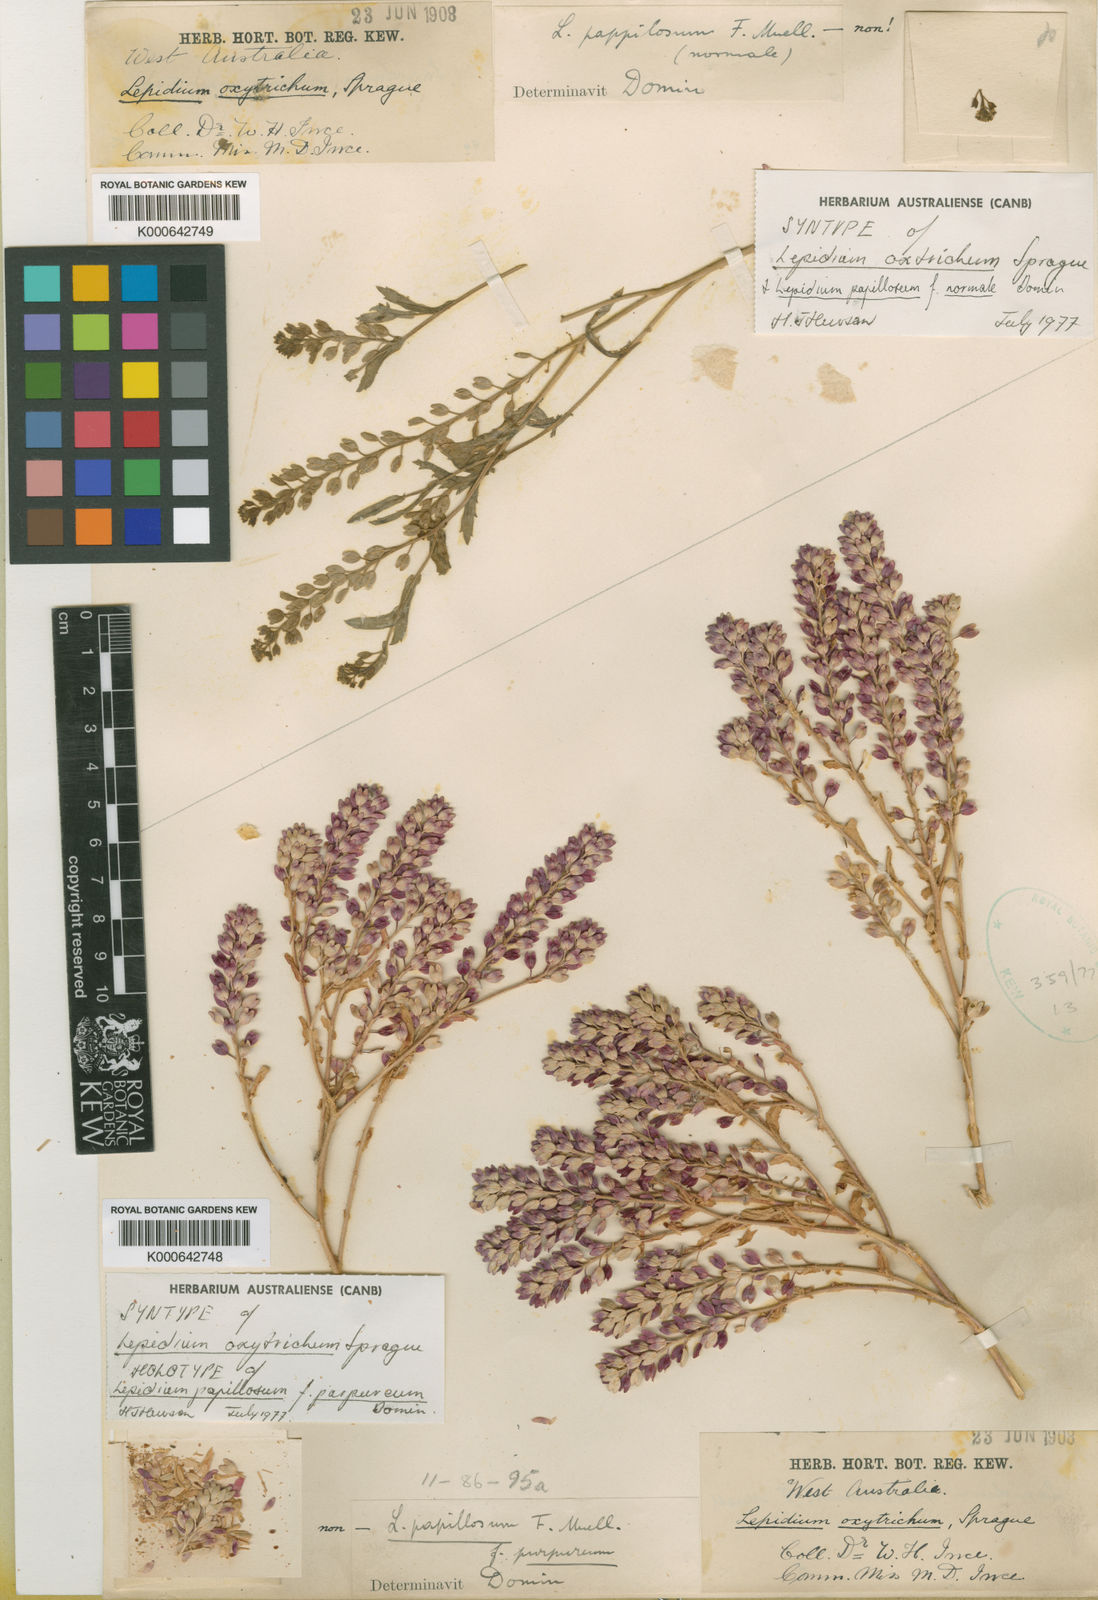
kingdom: Plantae
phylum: Tracheophyta
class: Magnoliopsida
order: Brassicales
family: Brassicaceae
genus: Lepidium
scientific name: Lepidium oxytrichum
